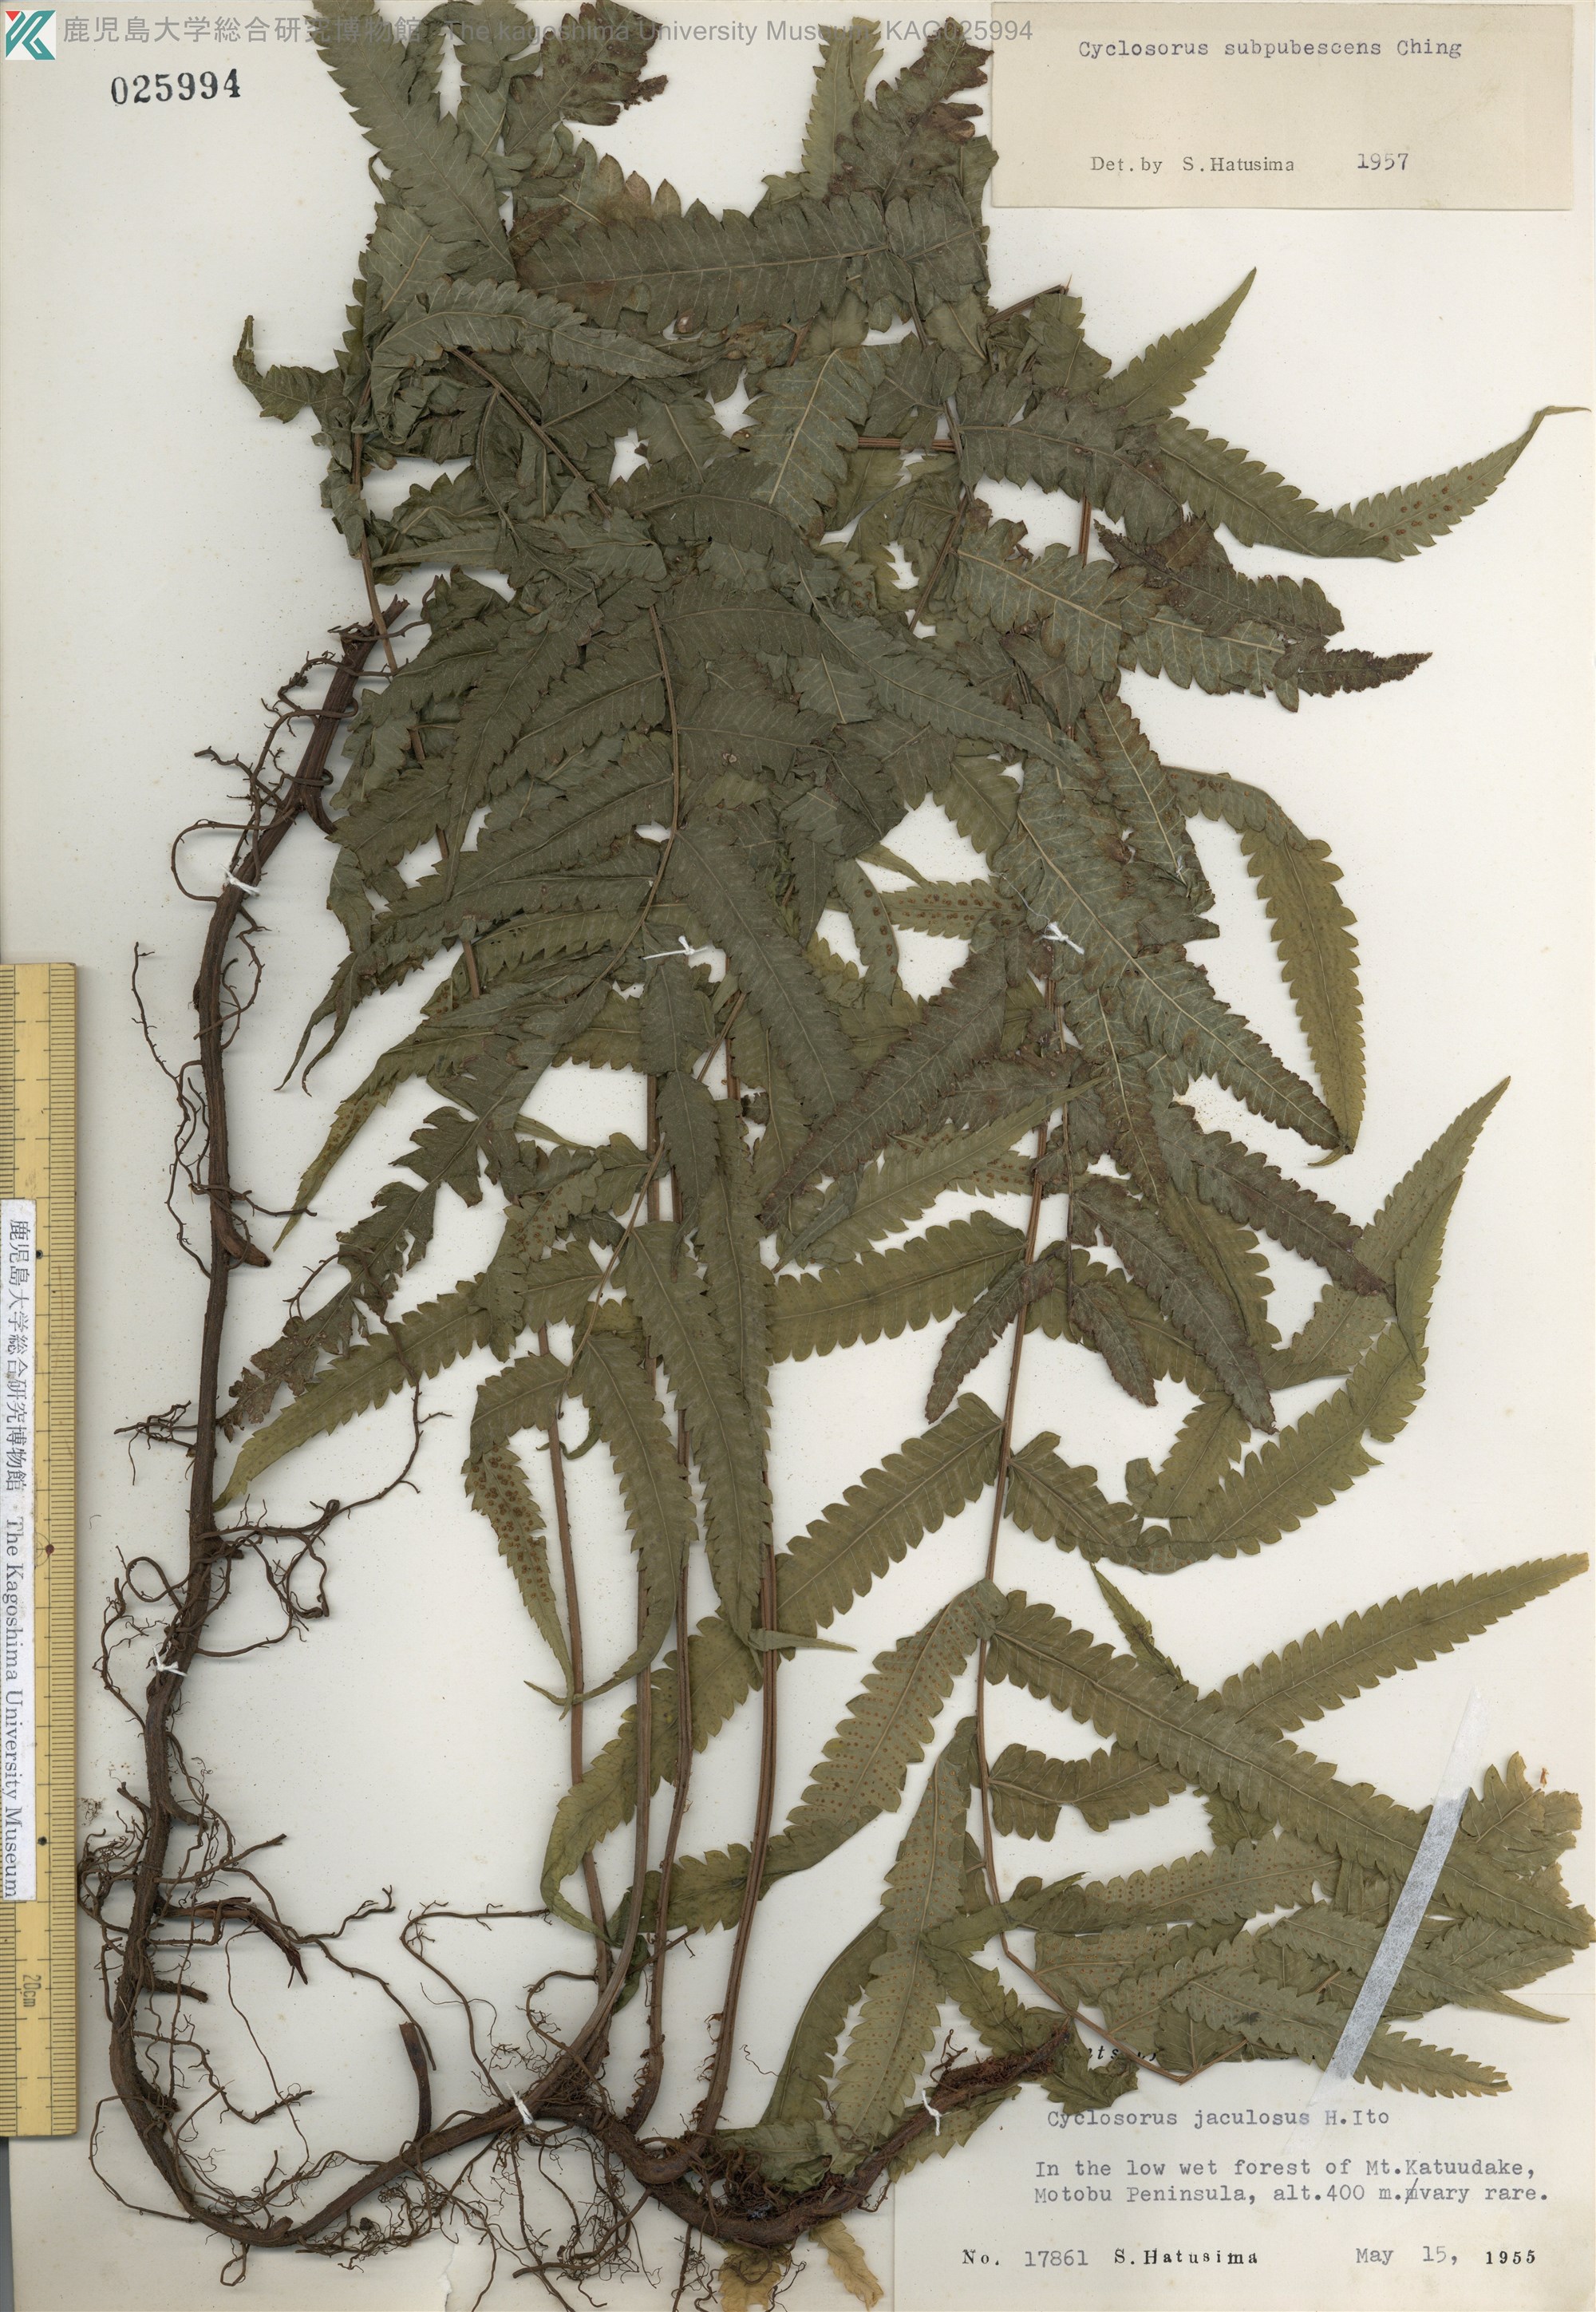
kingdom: Plantae
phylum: Tracheophyta
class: Polypodiopsida
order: Polypodiales
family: Thelypteridaceae
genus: Christella
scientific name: Christella jaculosa
